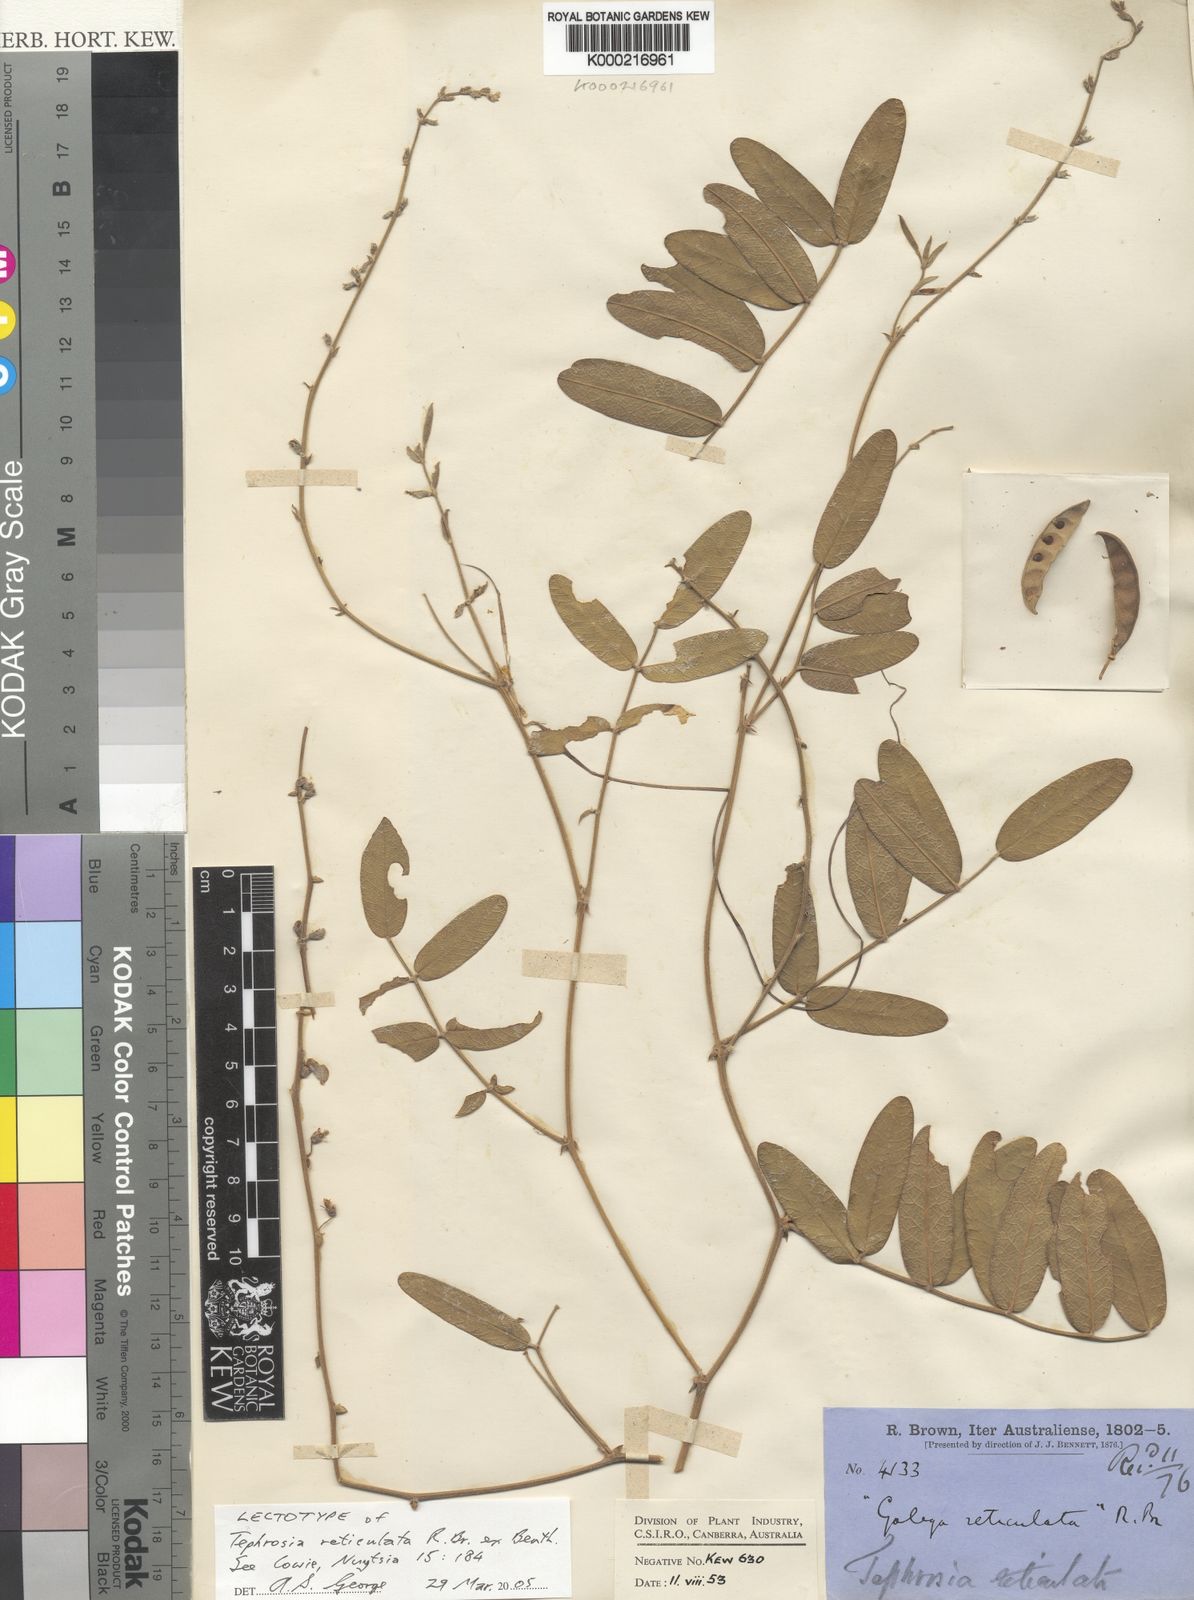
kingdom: Plantae
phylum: Tracheophyta
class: Magnoliopsida
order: Fabales
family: Fabaceae
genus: Tephrosia
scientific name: Tephrosia reticulata
